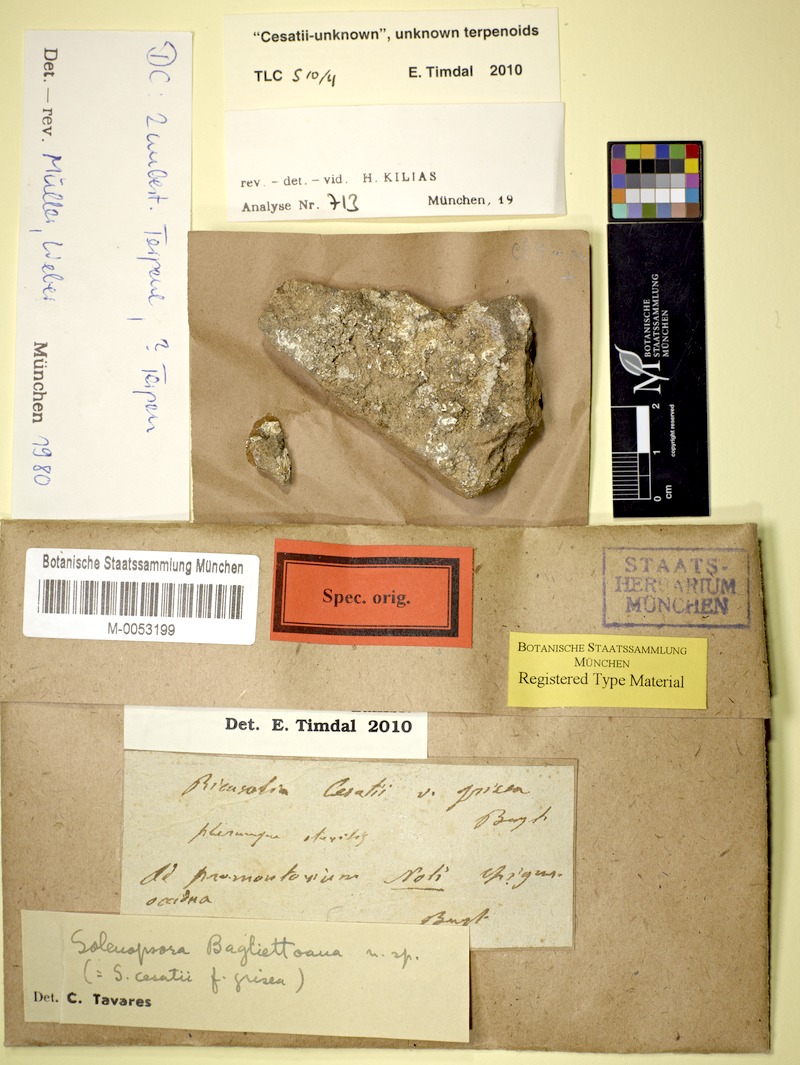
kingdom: Fungi
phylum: Ascomycota
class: Lecanoromycetes
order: Lecanorales
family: Catillariaceae
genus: Solenopsora
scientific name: Solenopsora cesatii
